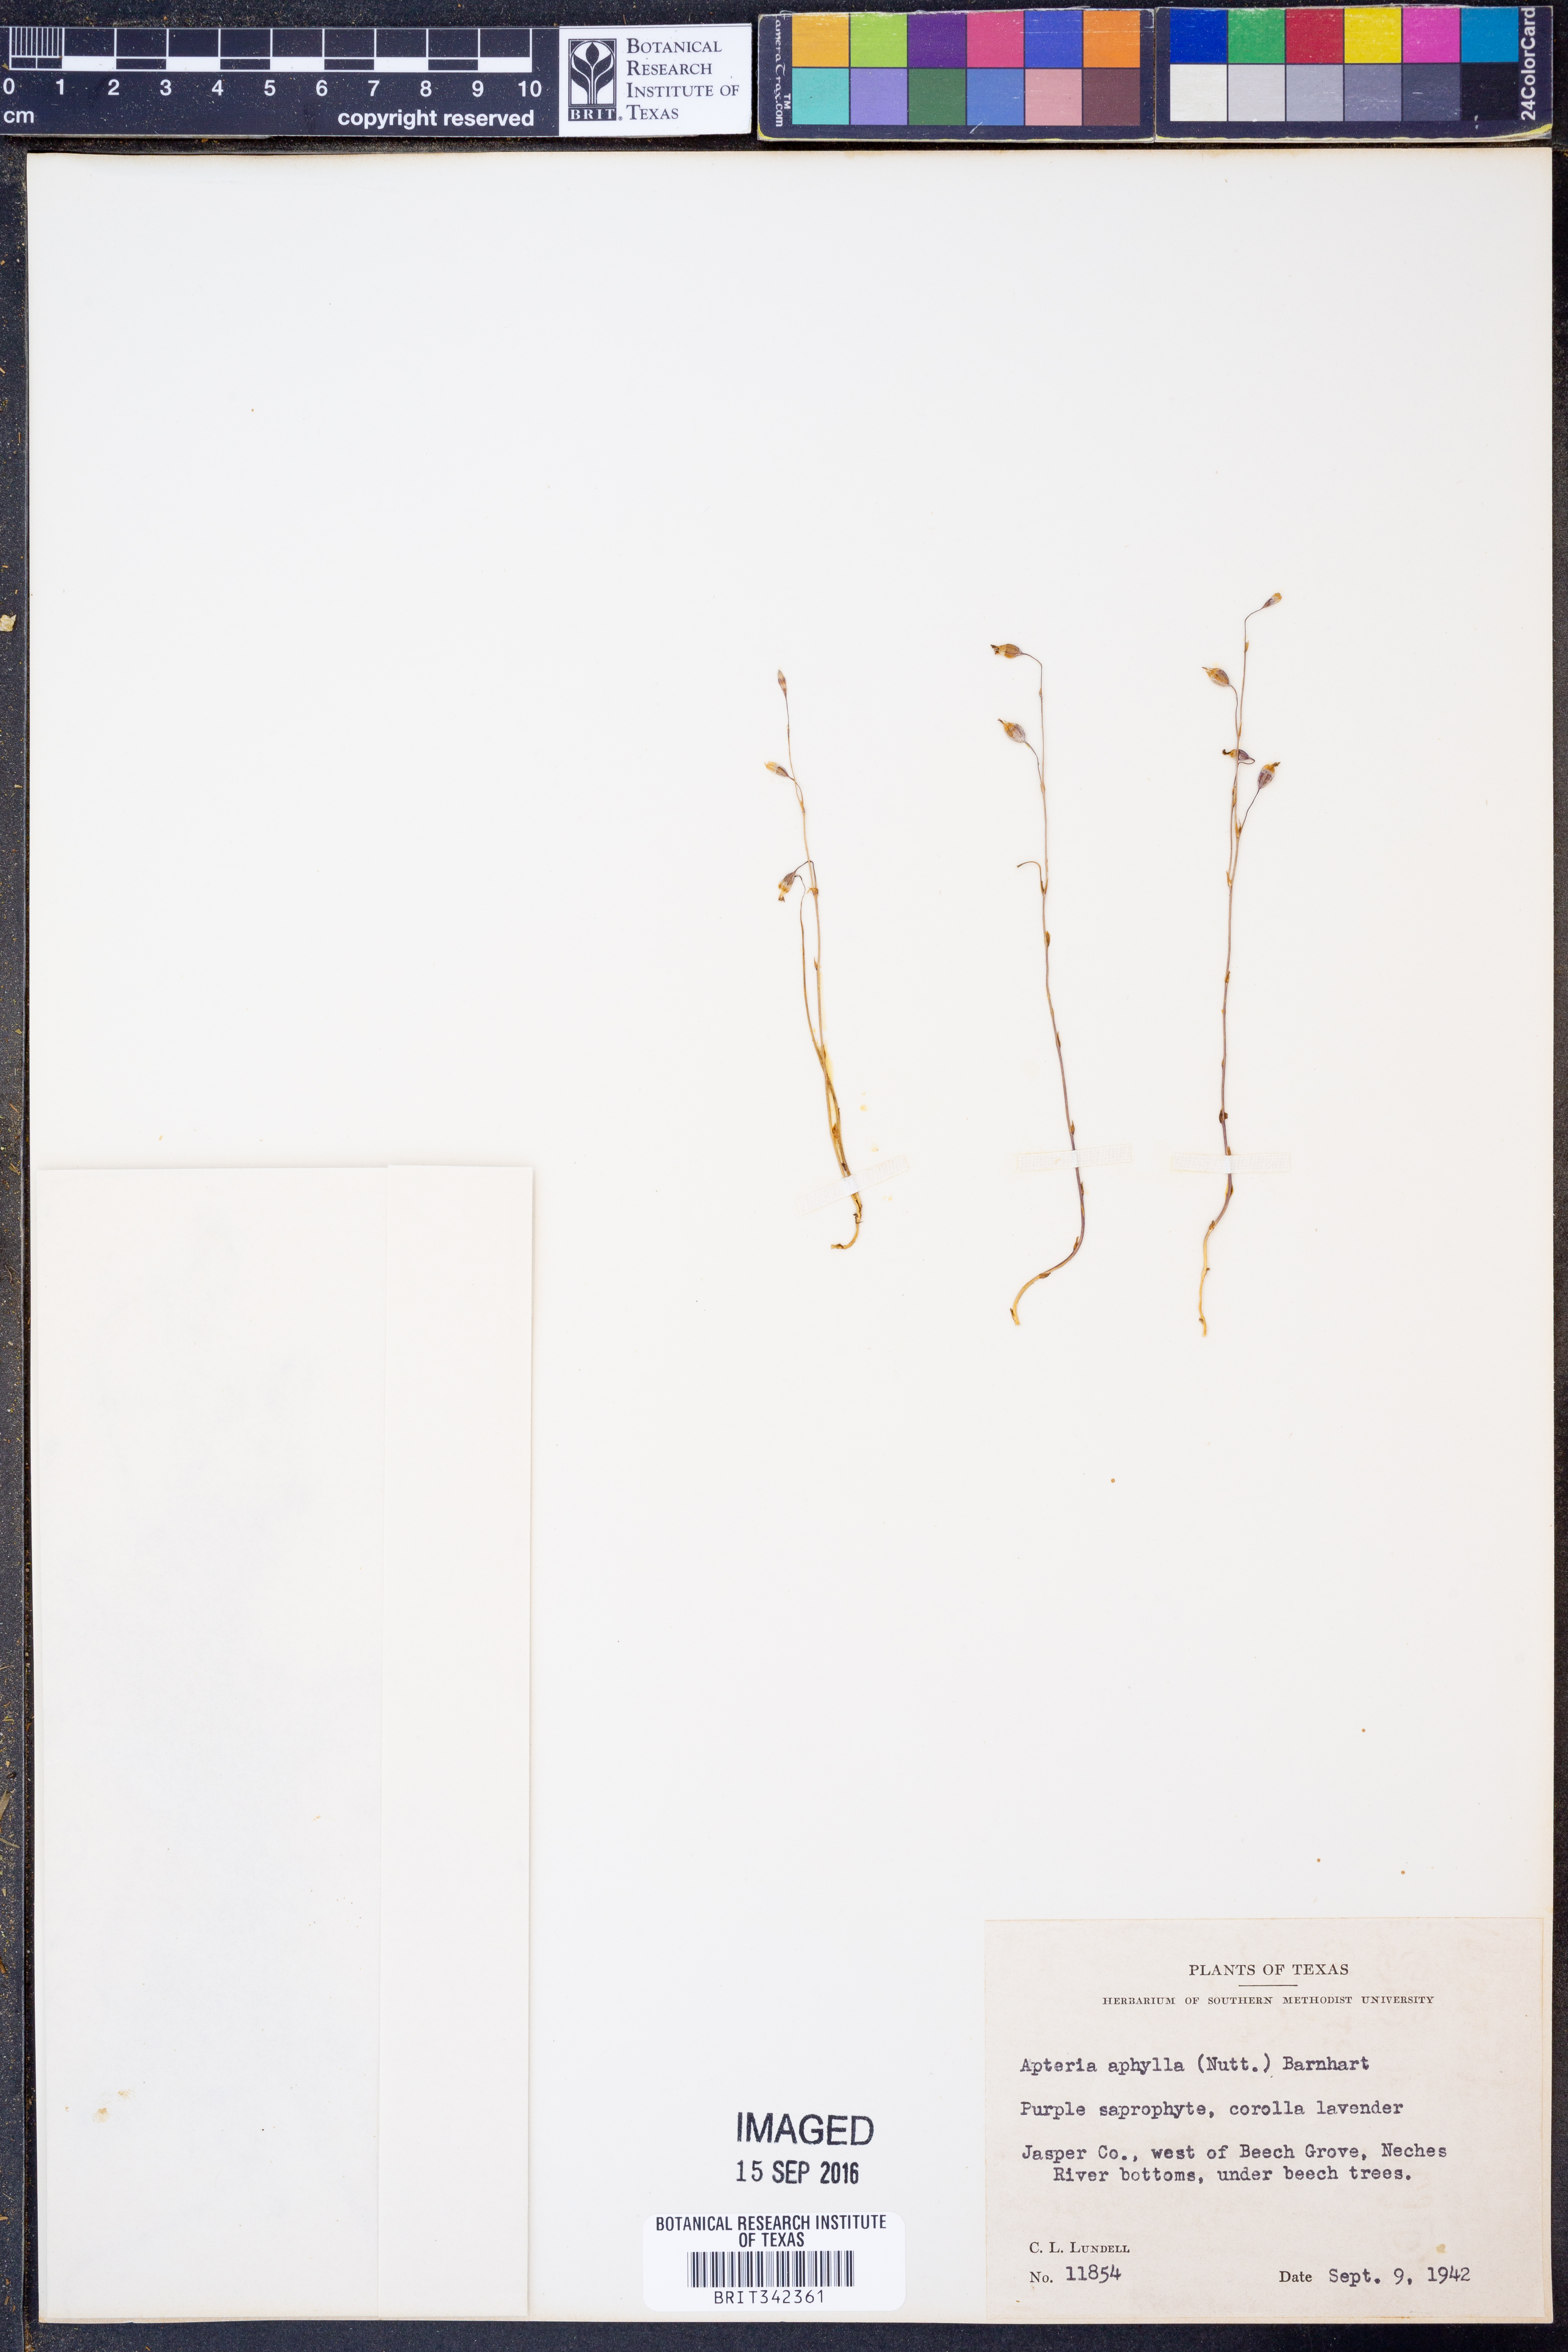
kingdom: Plantae
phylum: Tracheophyta
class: Liliopsida
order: Dioscoreales
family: Burmanniaceae
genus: Apteria
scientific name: Apteria aphylla
